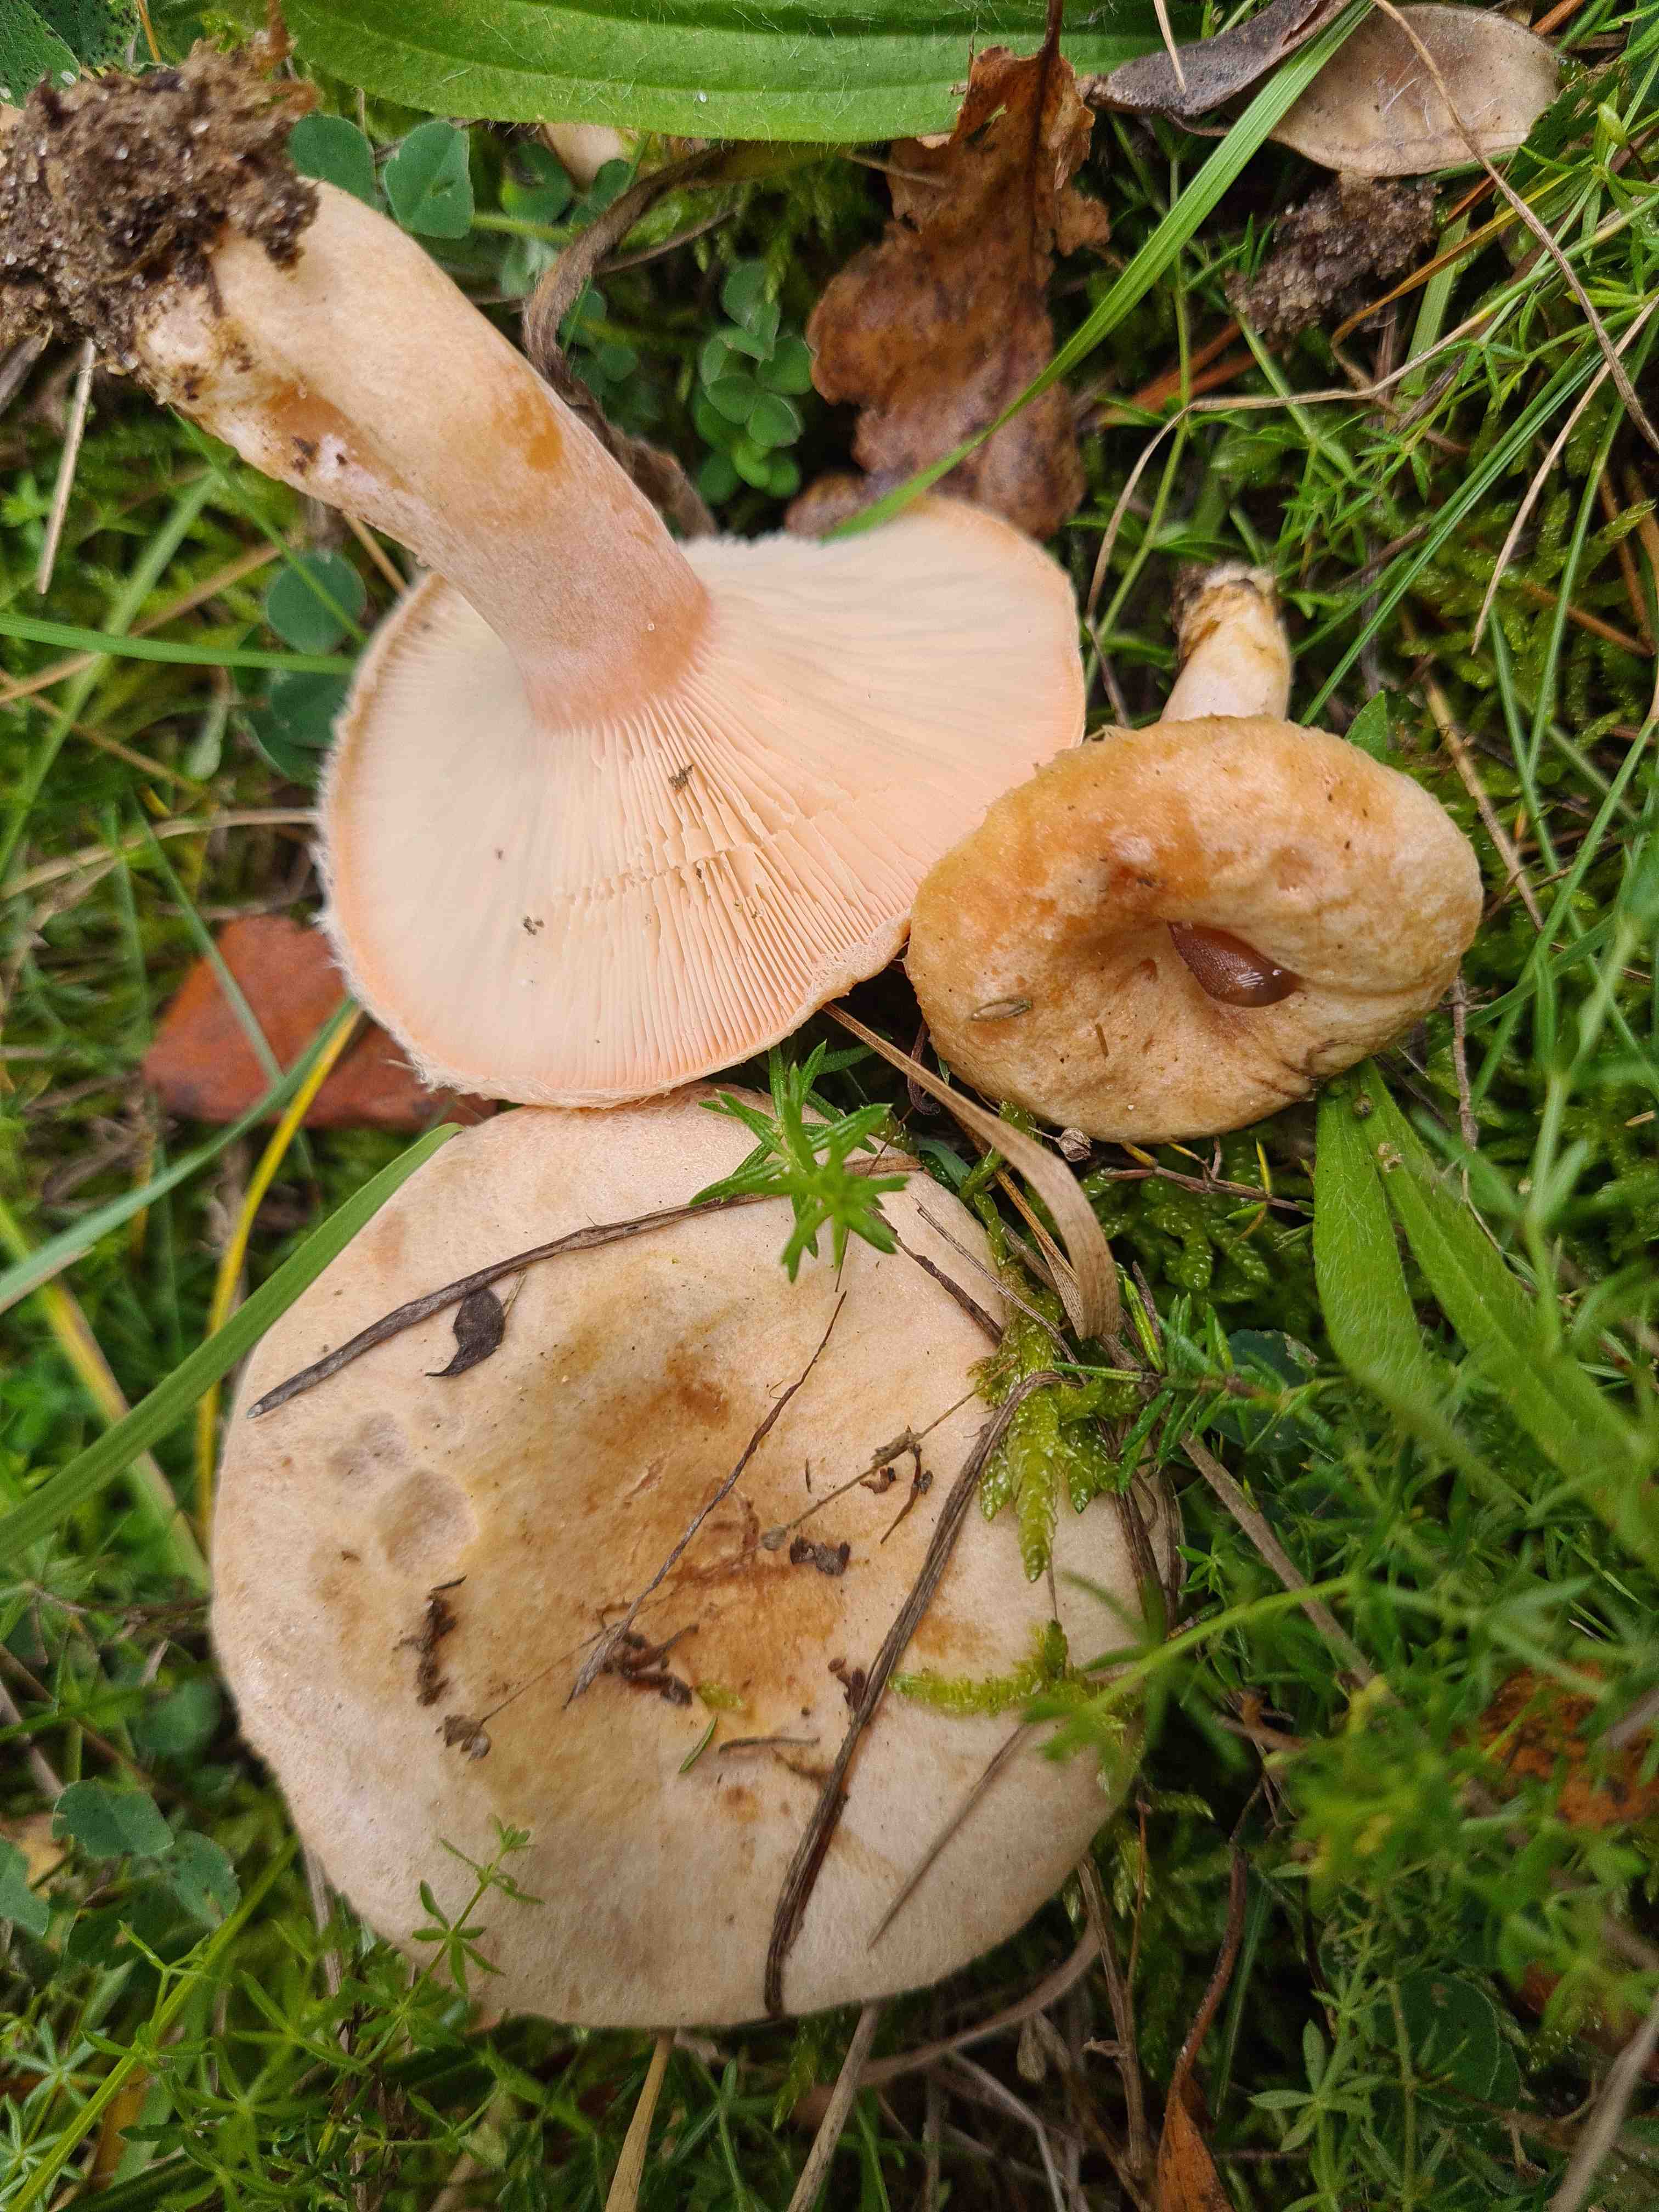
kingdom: Fungi
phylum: Basidiomycota
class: Agaricomycetes
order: Russulales
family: Russulaceae
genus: Lactarius
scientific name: Lactarius pubescens
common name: dunet mælkehat
